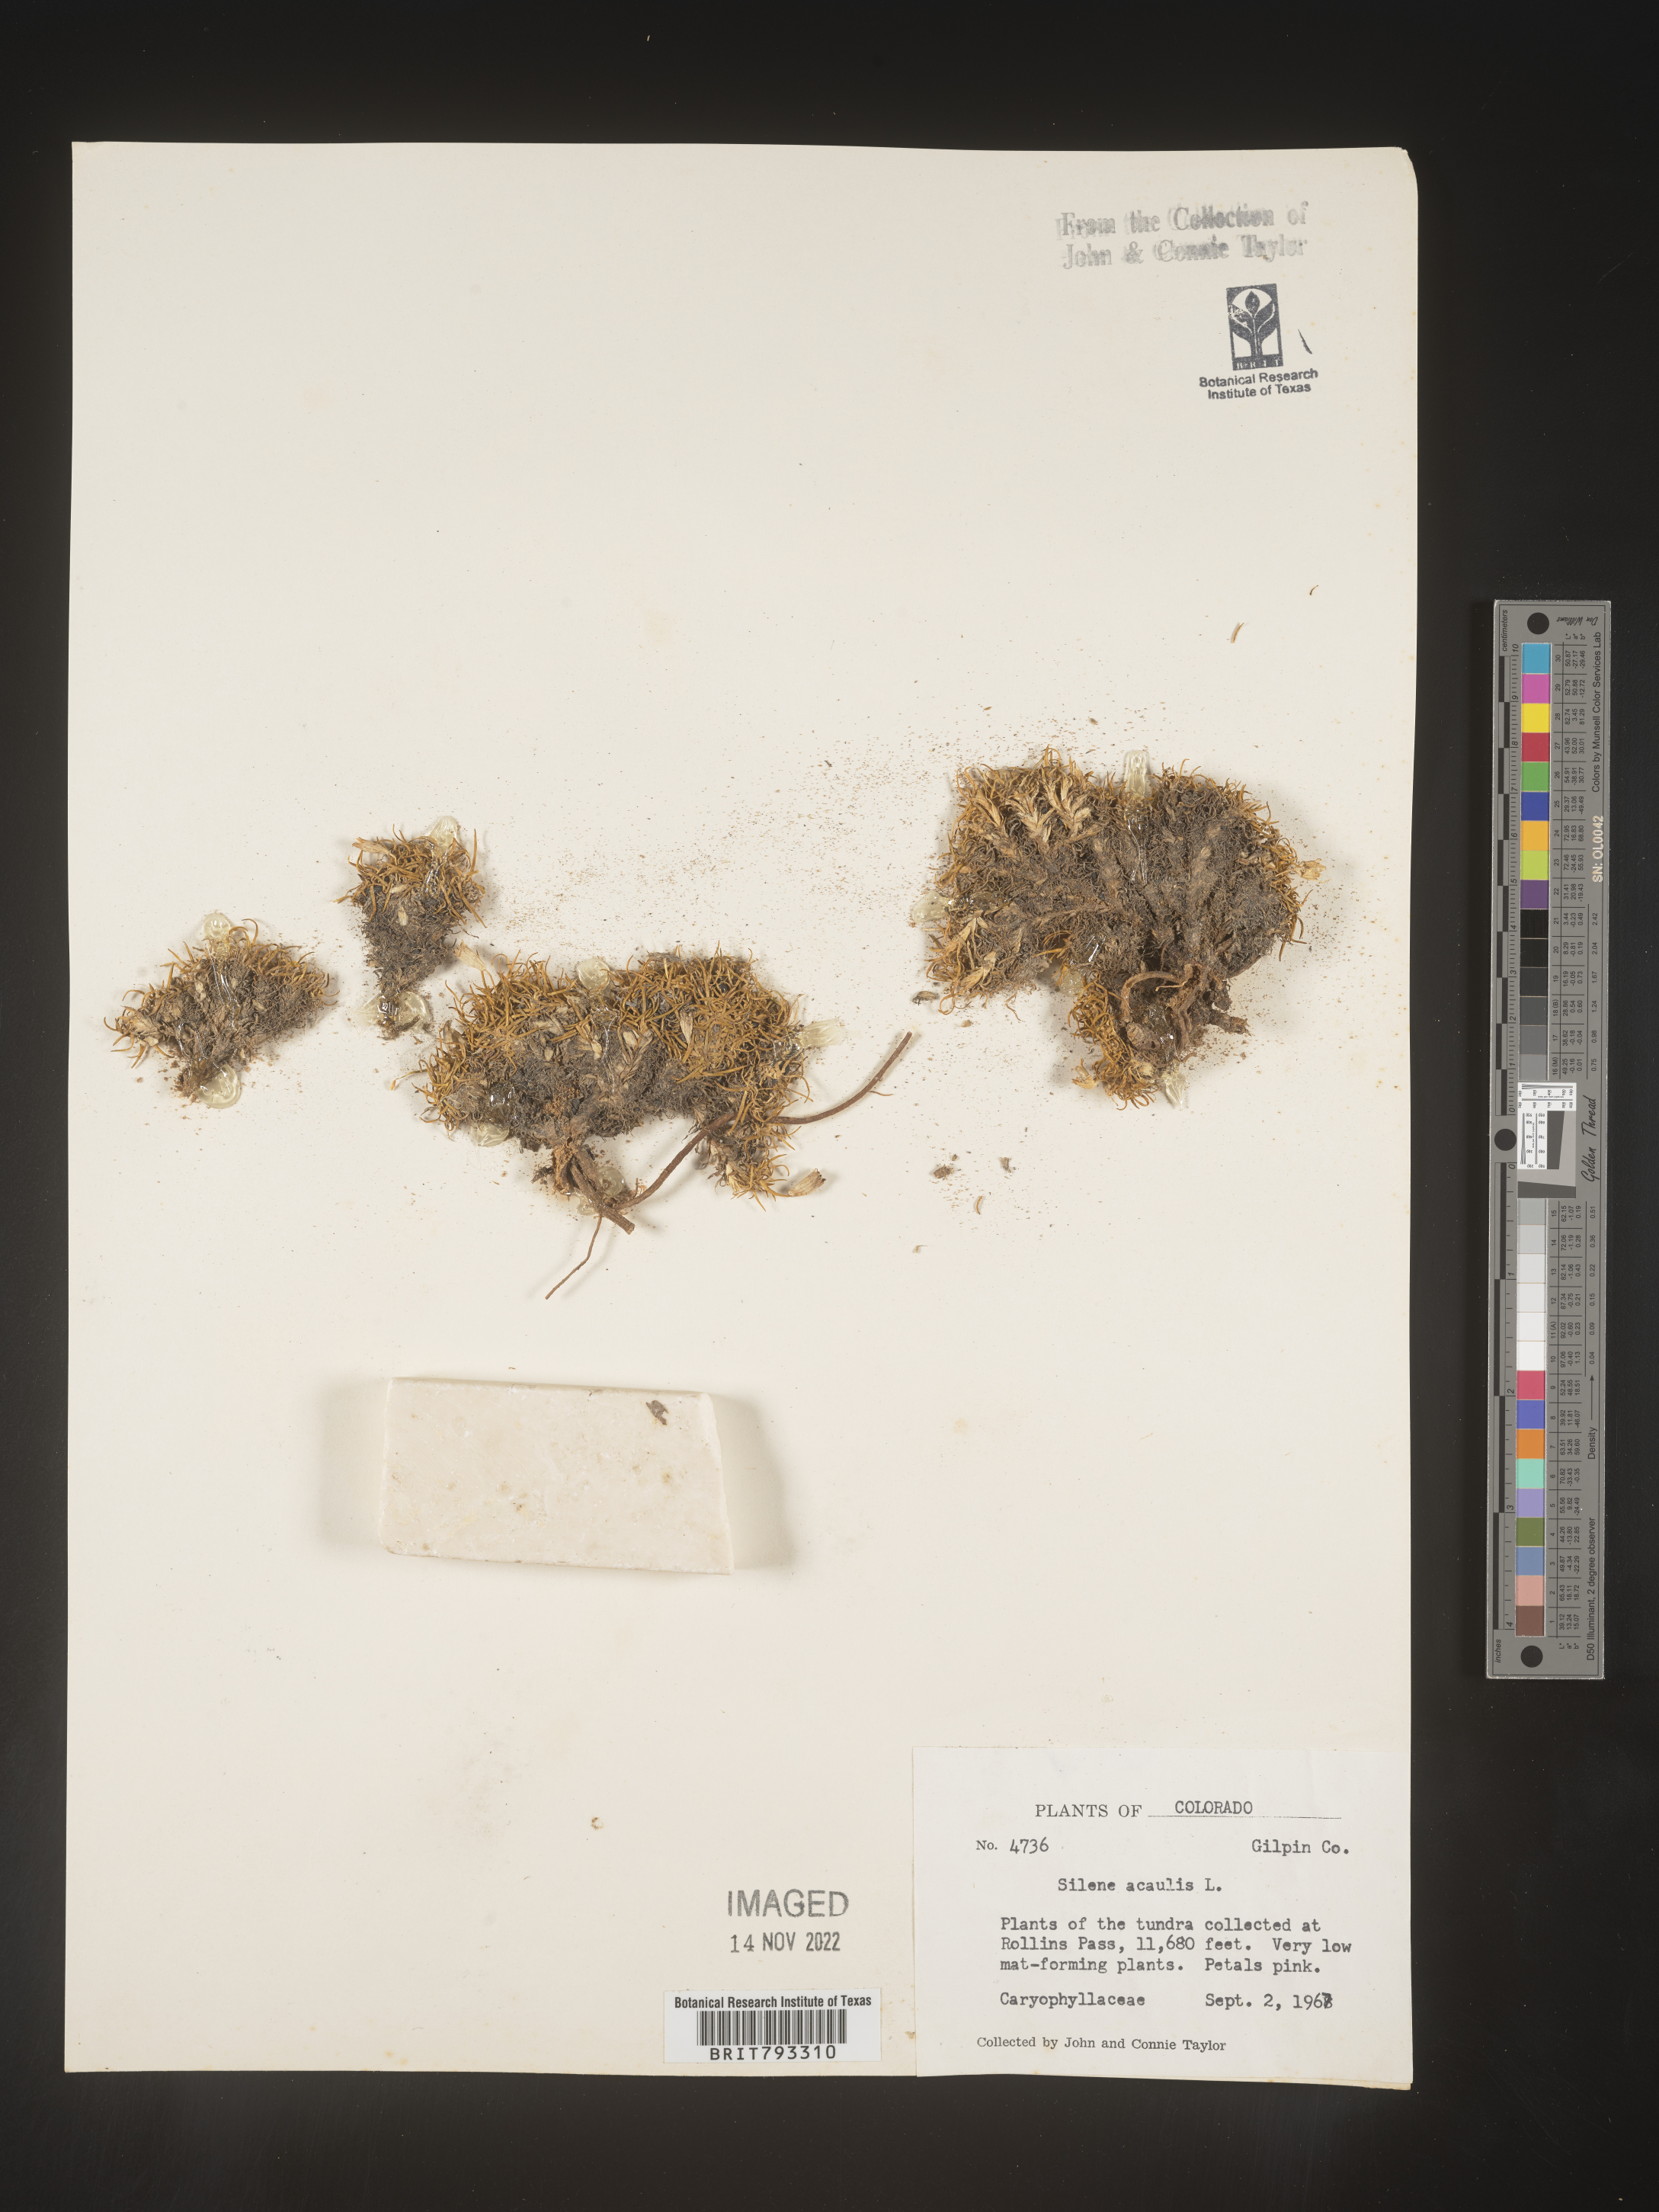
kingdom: Plantae
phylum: Tracheophyta
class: Magnoliopsida
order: Caryophyllales
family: Caryophyllaceae
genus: Silene
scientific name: Silene acaulis
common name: Moss campion
